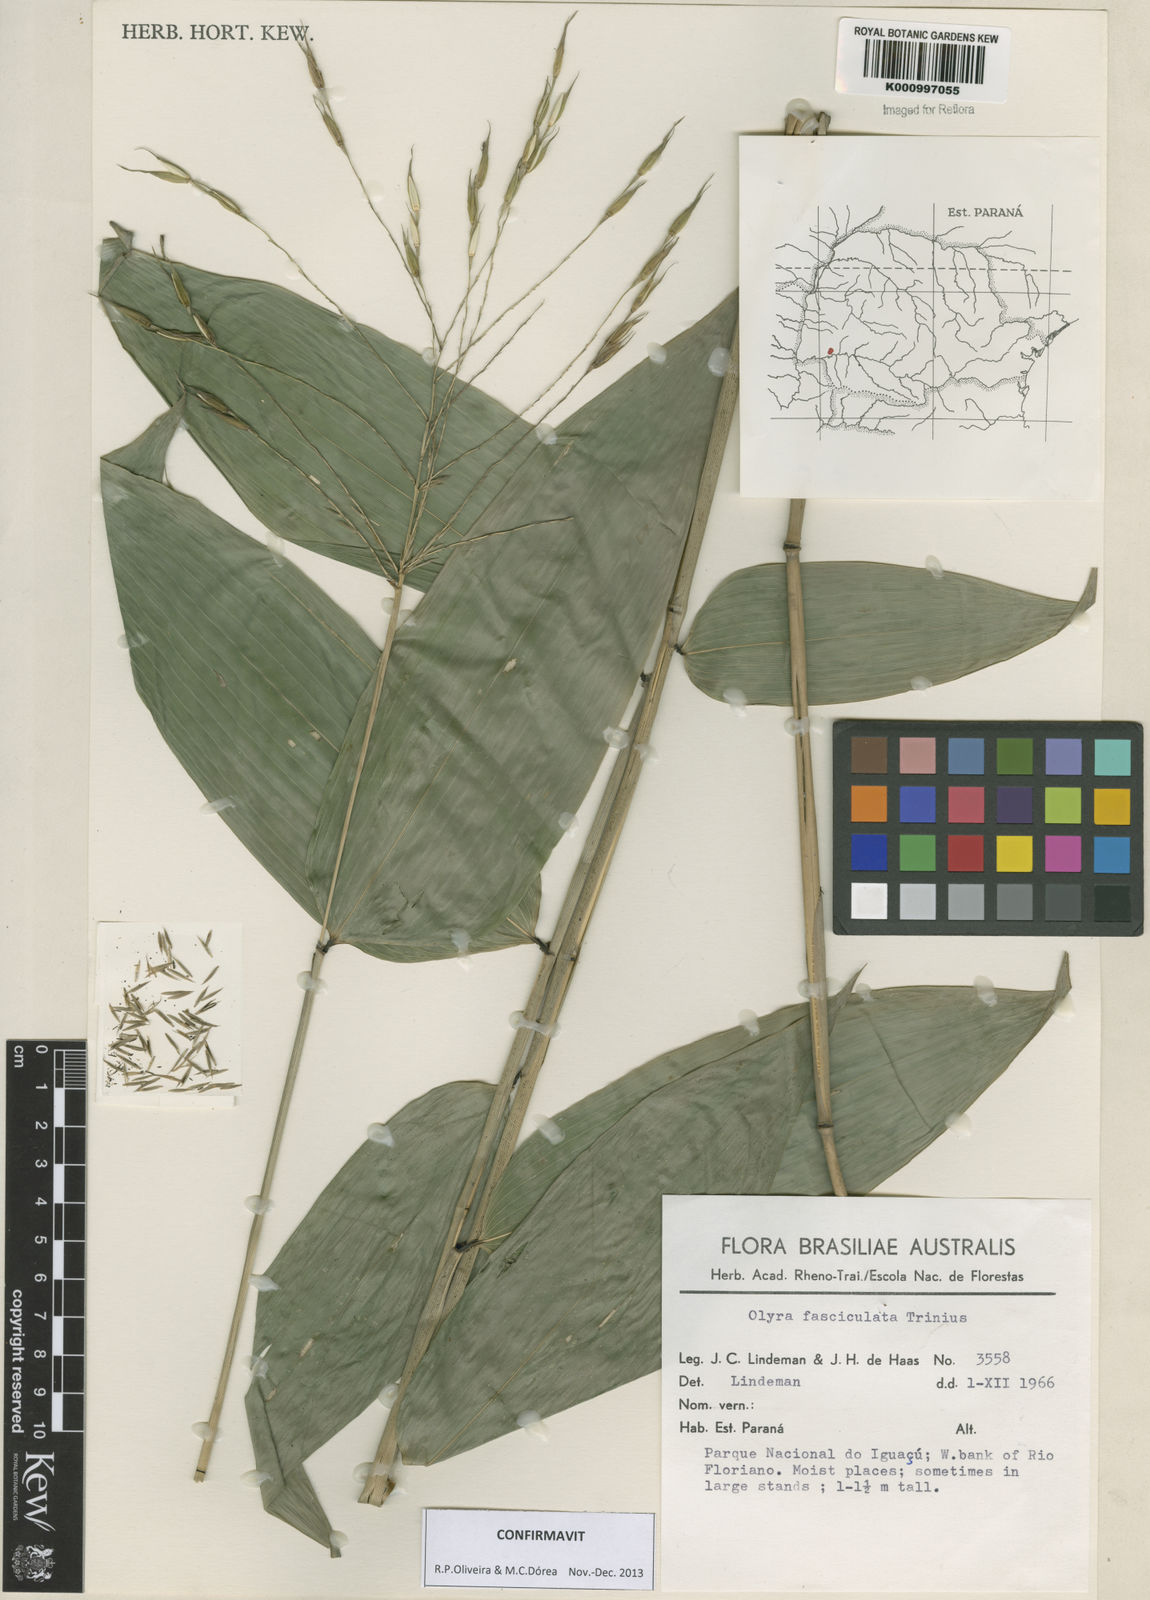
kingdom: Plantae
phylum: Tracheophyta
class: Liliopsida
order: Poales
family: Poaceae
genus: Olyra
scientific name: Olyra fasciculata
